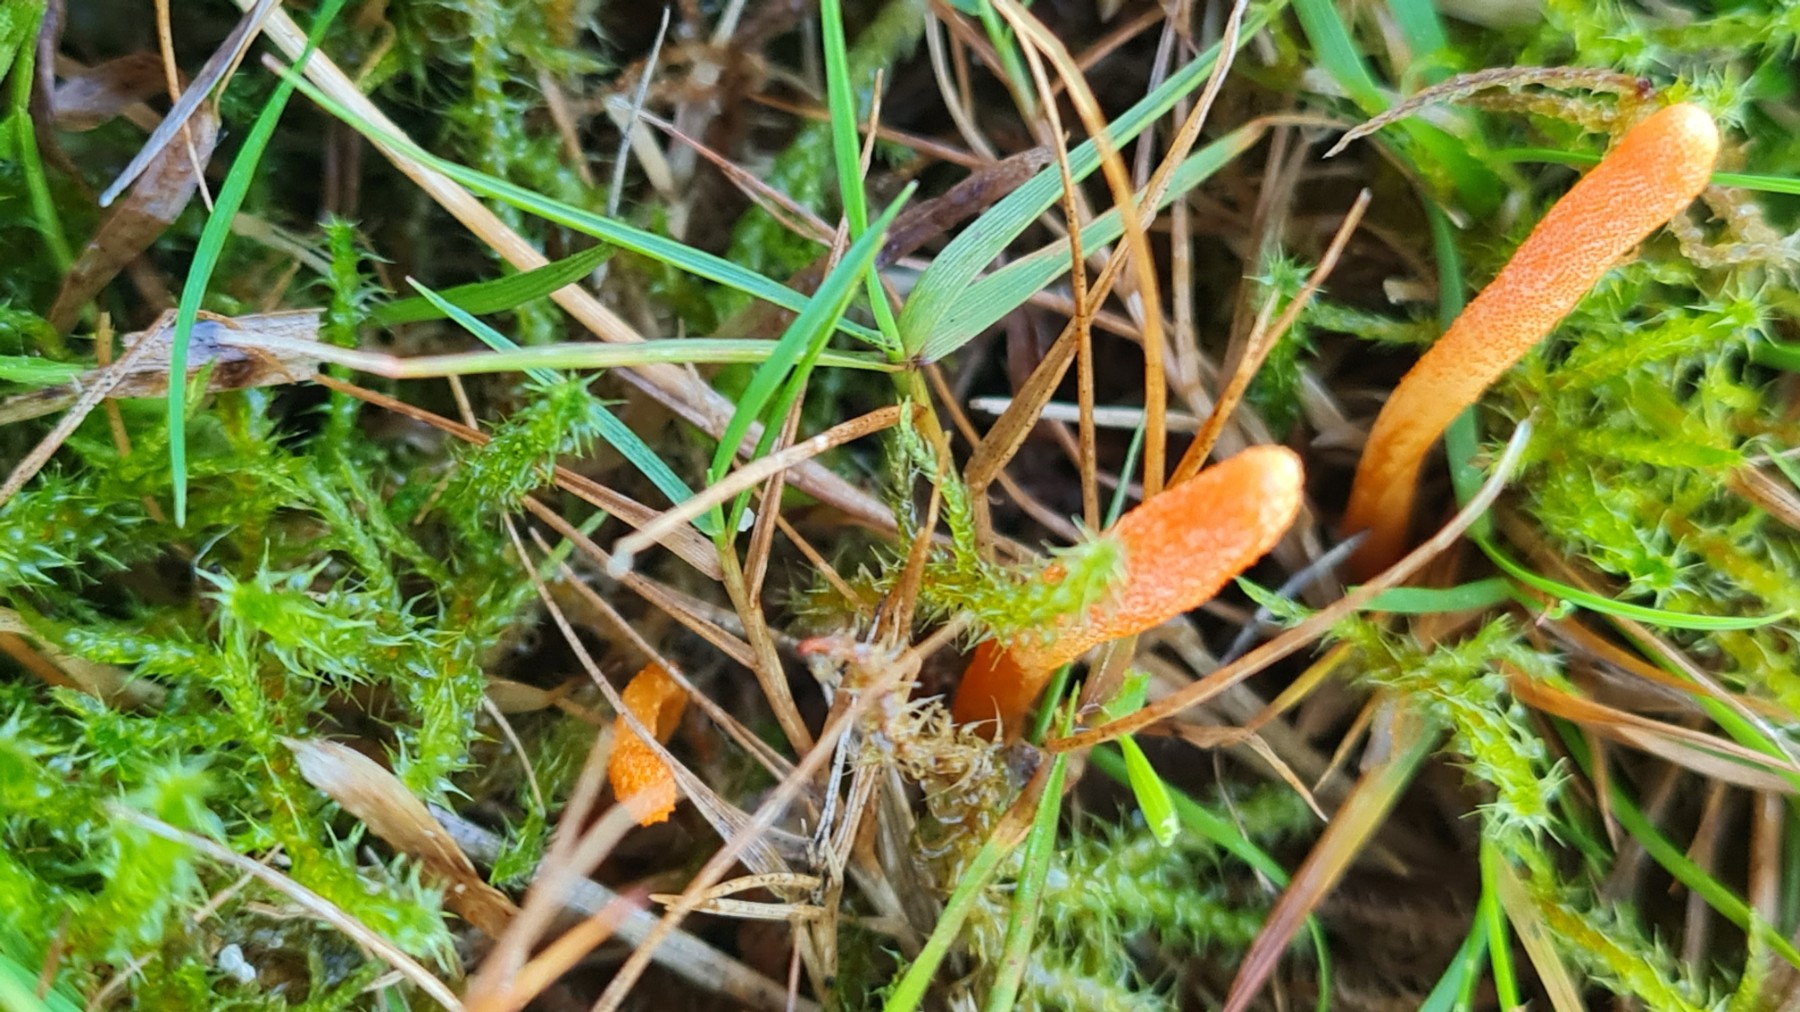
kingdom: Fungi
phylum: Ascomycota
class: Sordariomycetes
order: Hypocreales
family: Cordycipitaceae
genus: Cordyceps
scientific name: Cordyceps militaris
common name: puppe-snyltekølle
